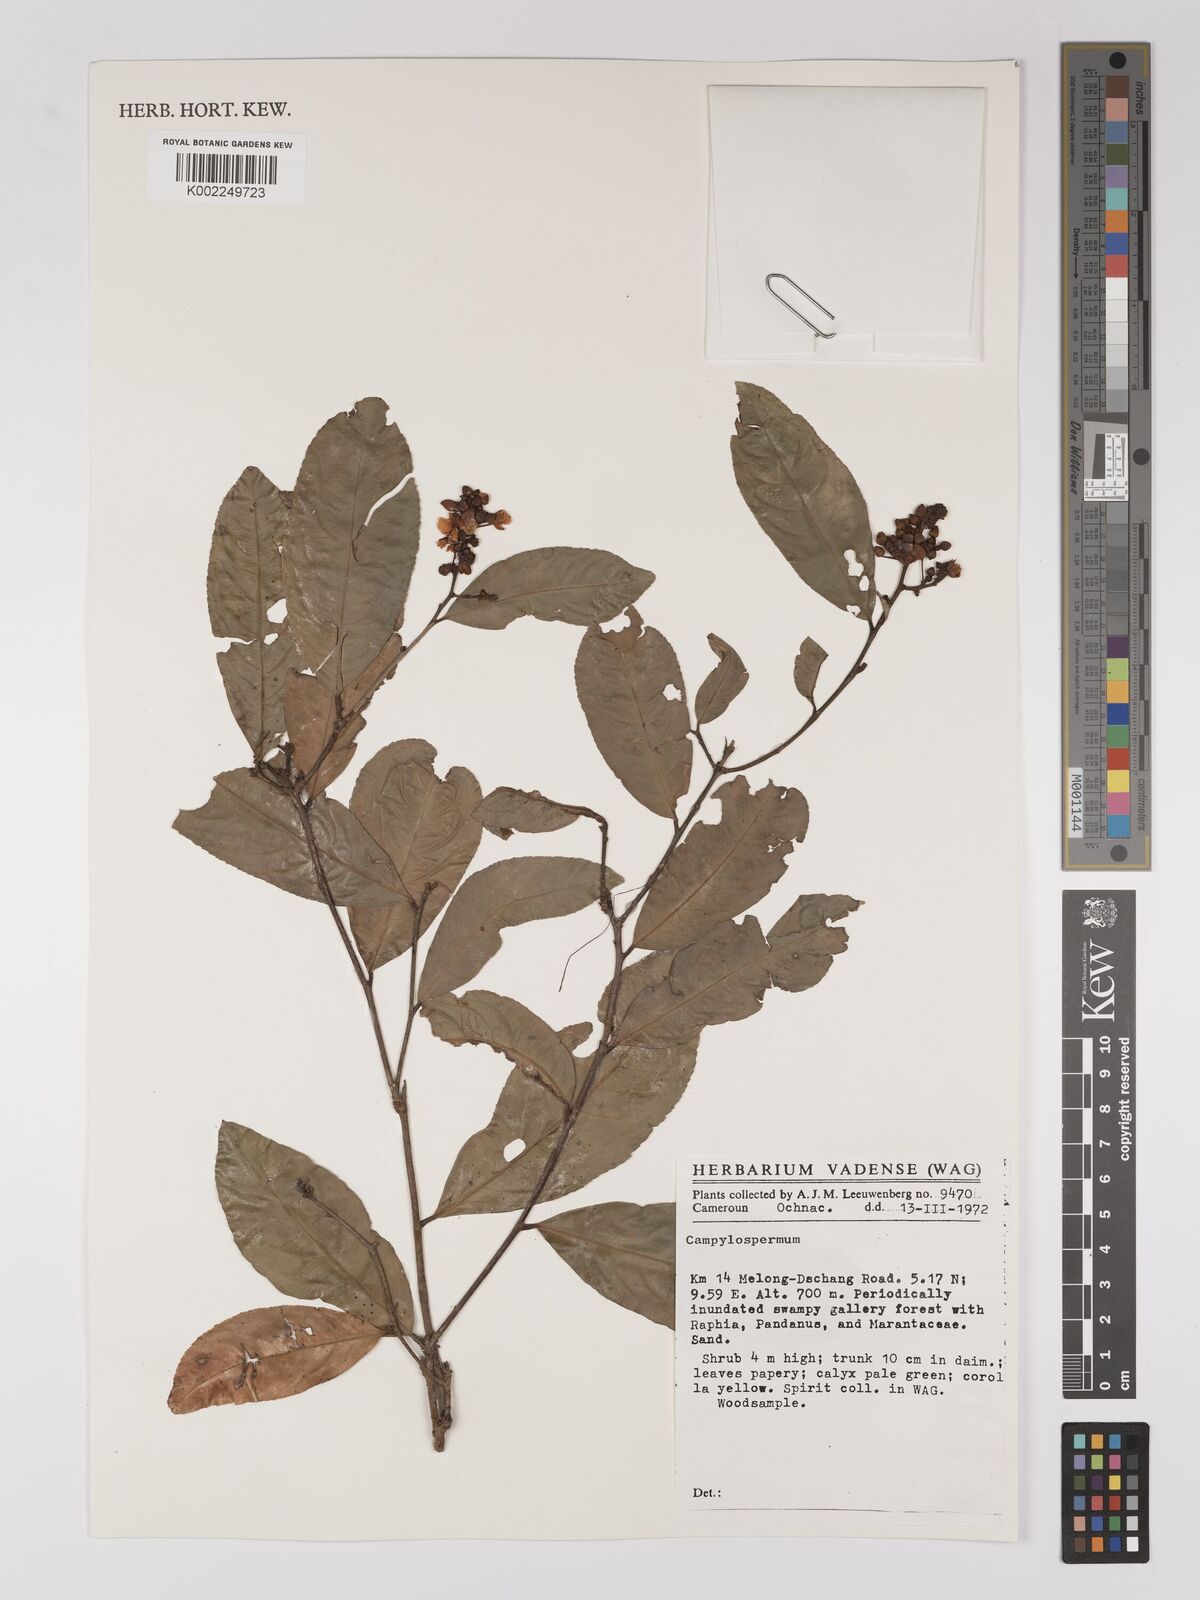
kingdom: Plantae
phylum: Tracheophyta
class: Magnoliopsida
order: Malpighiales
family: Ochnaceae
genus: Campylospermum
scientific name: Campylospermum
